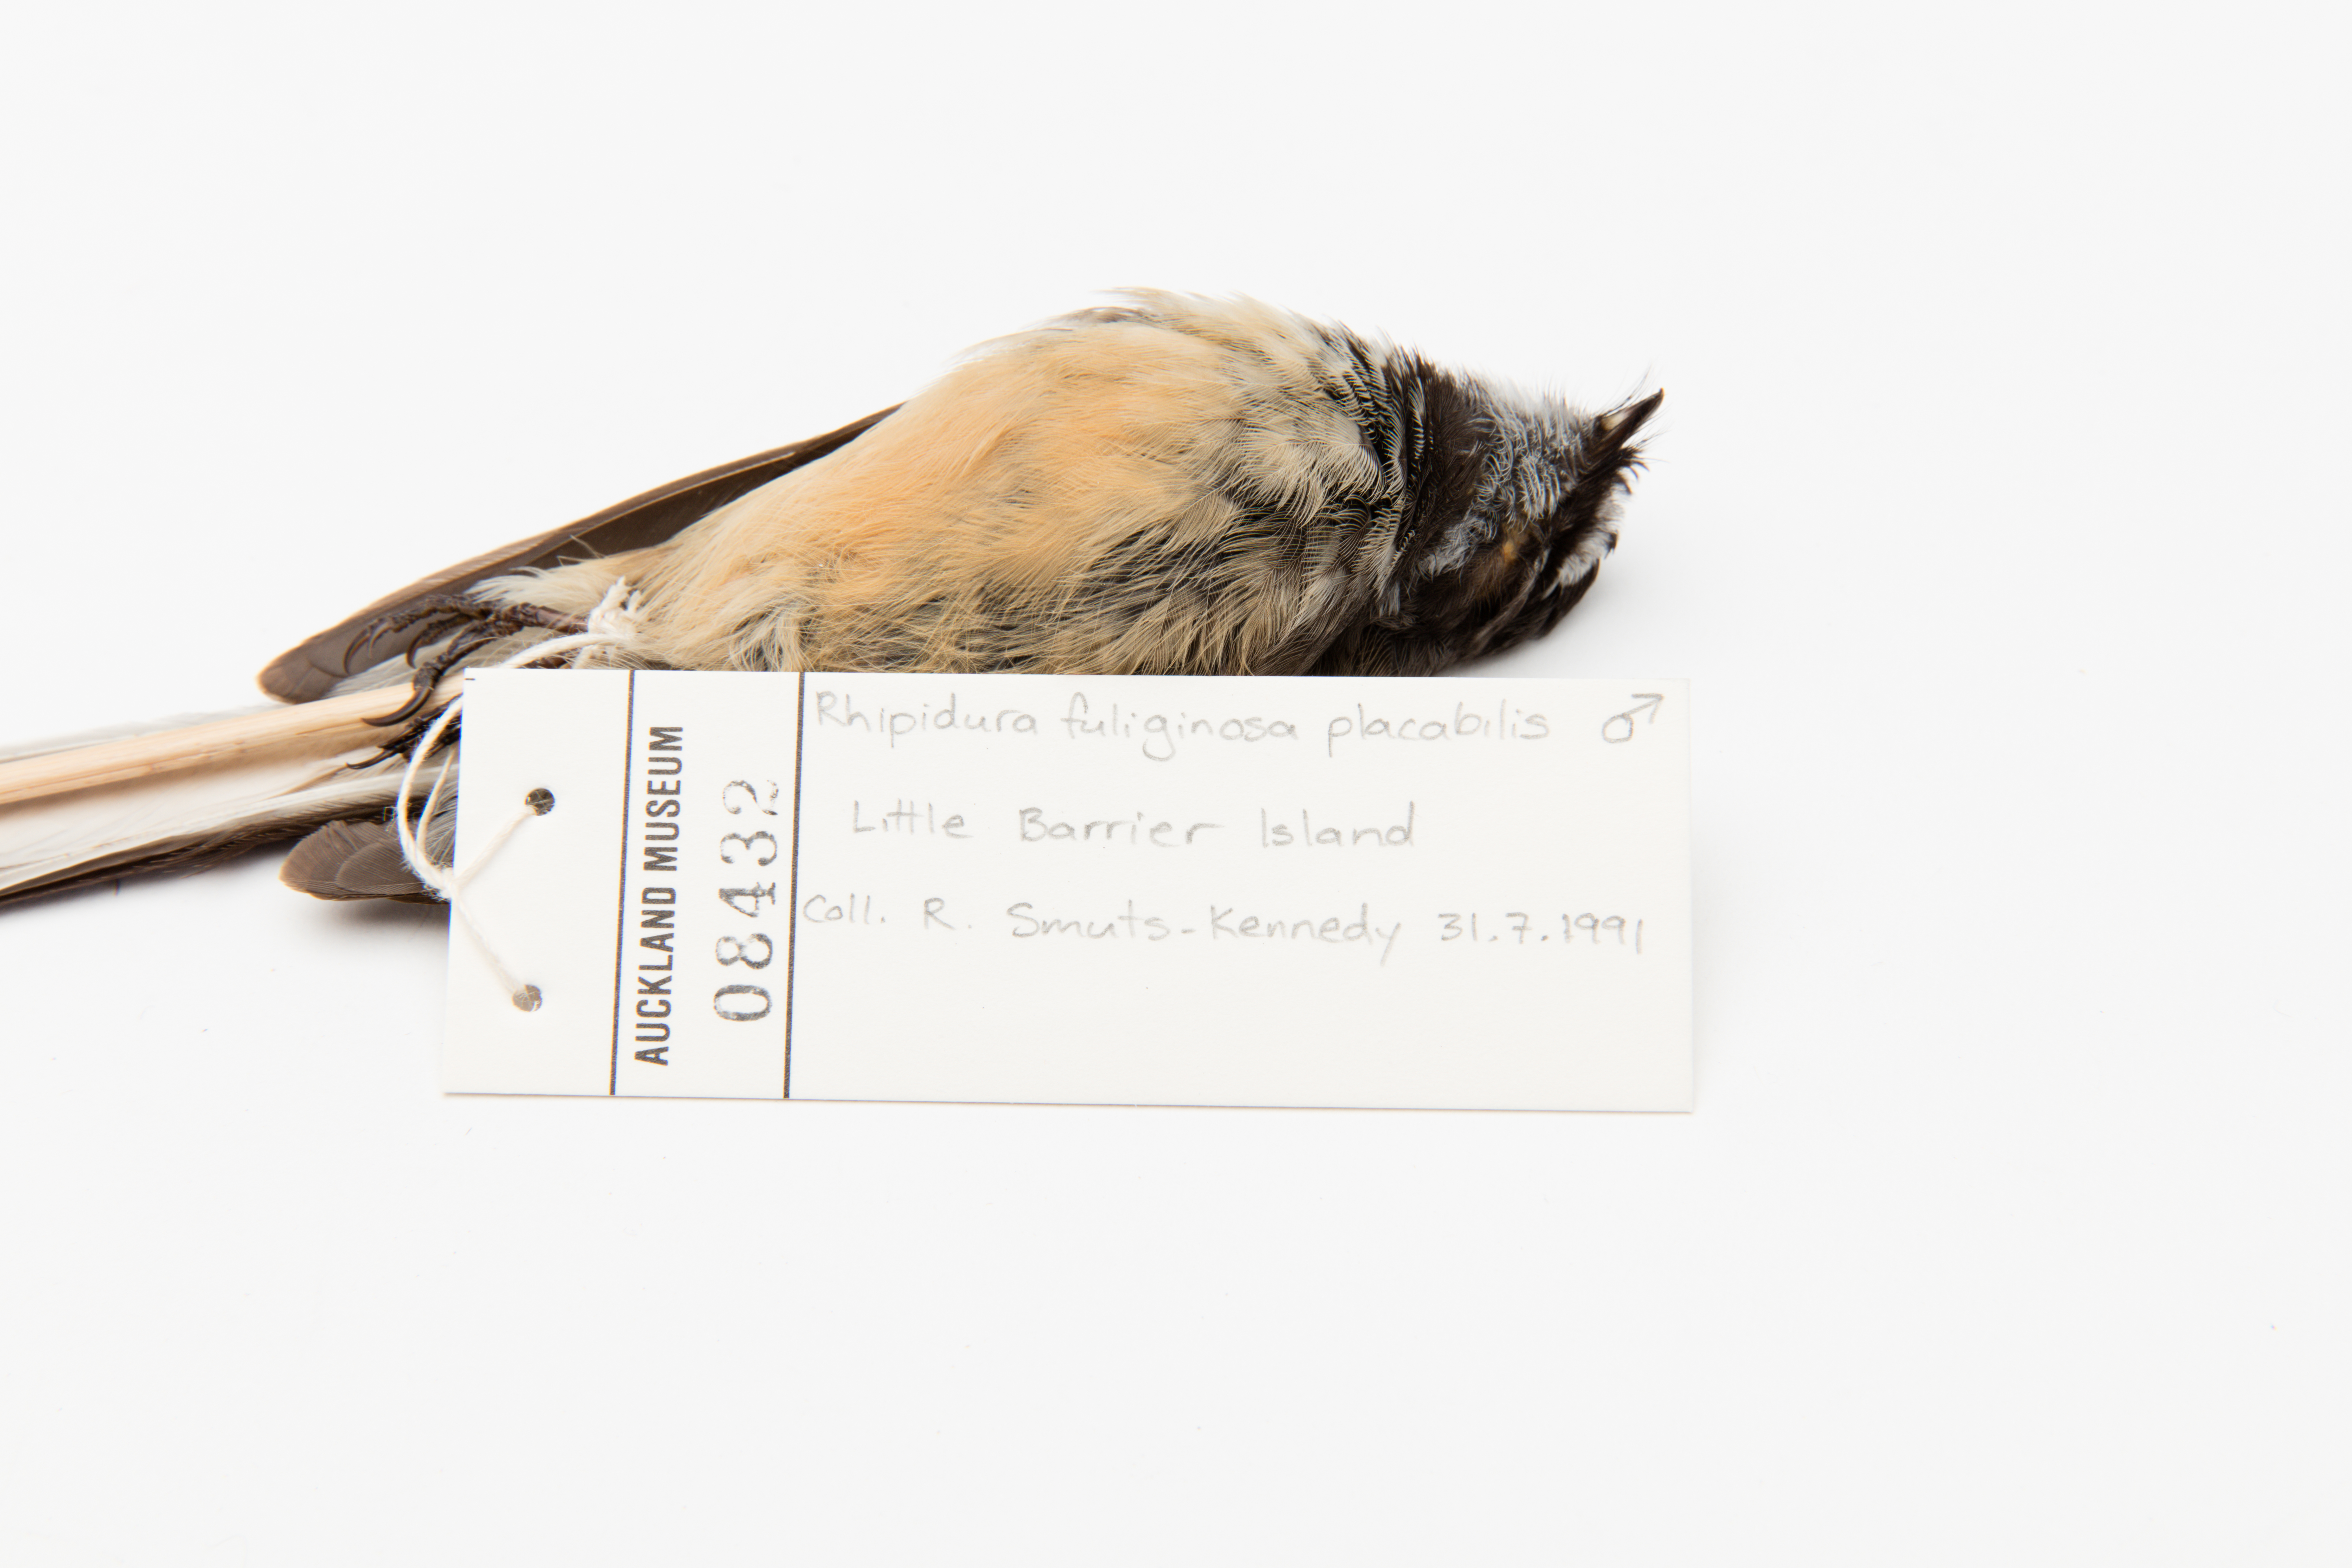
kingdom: Animalia
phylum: Chordata
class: Aves
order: Passeriformes
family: Rhipiduridae
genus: Rhipidura
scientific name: Rhipidura fuliginosa
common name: New zealand fantail
